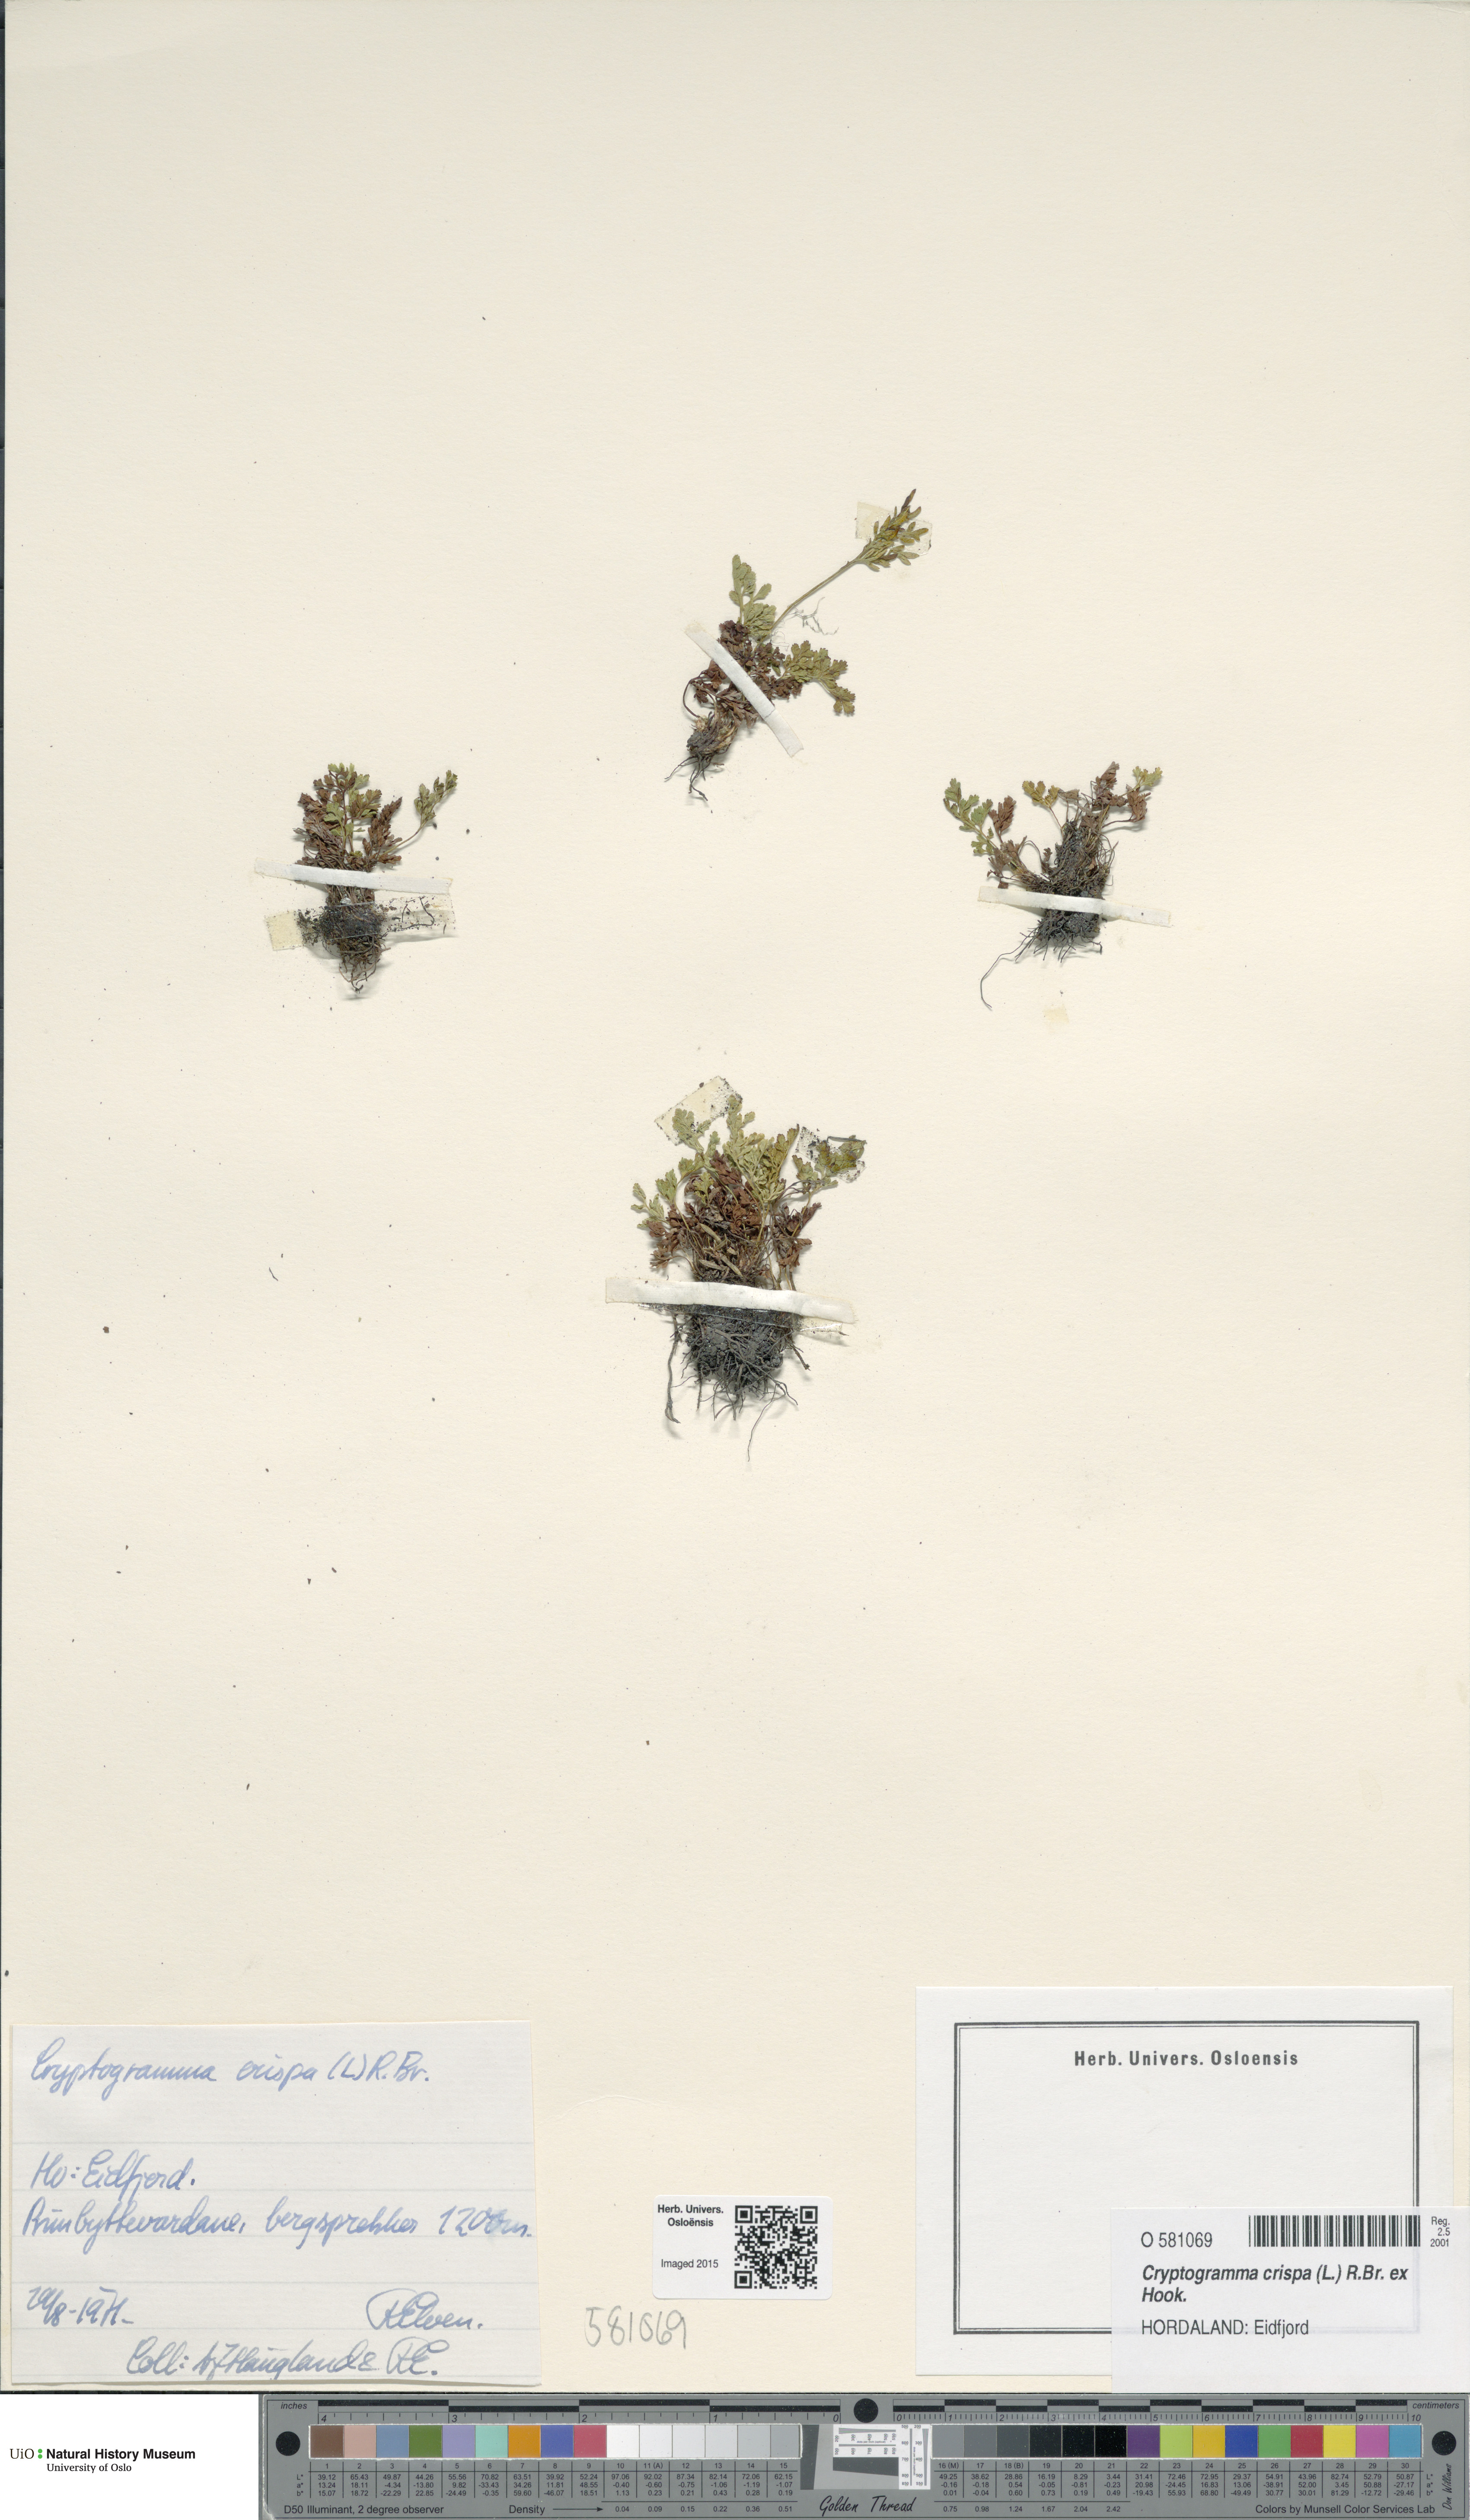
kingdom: Plantae
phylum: Tracheophyta
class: Polypodiopsida
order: Polypodiales
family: Pteridaceae
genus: Cryptogramma
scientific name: Cryptogramma crispa
